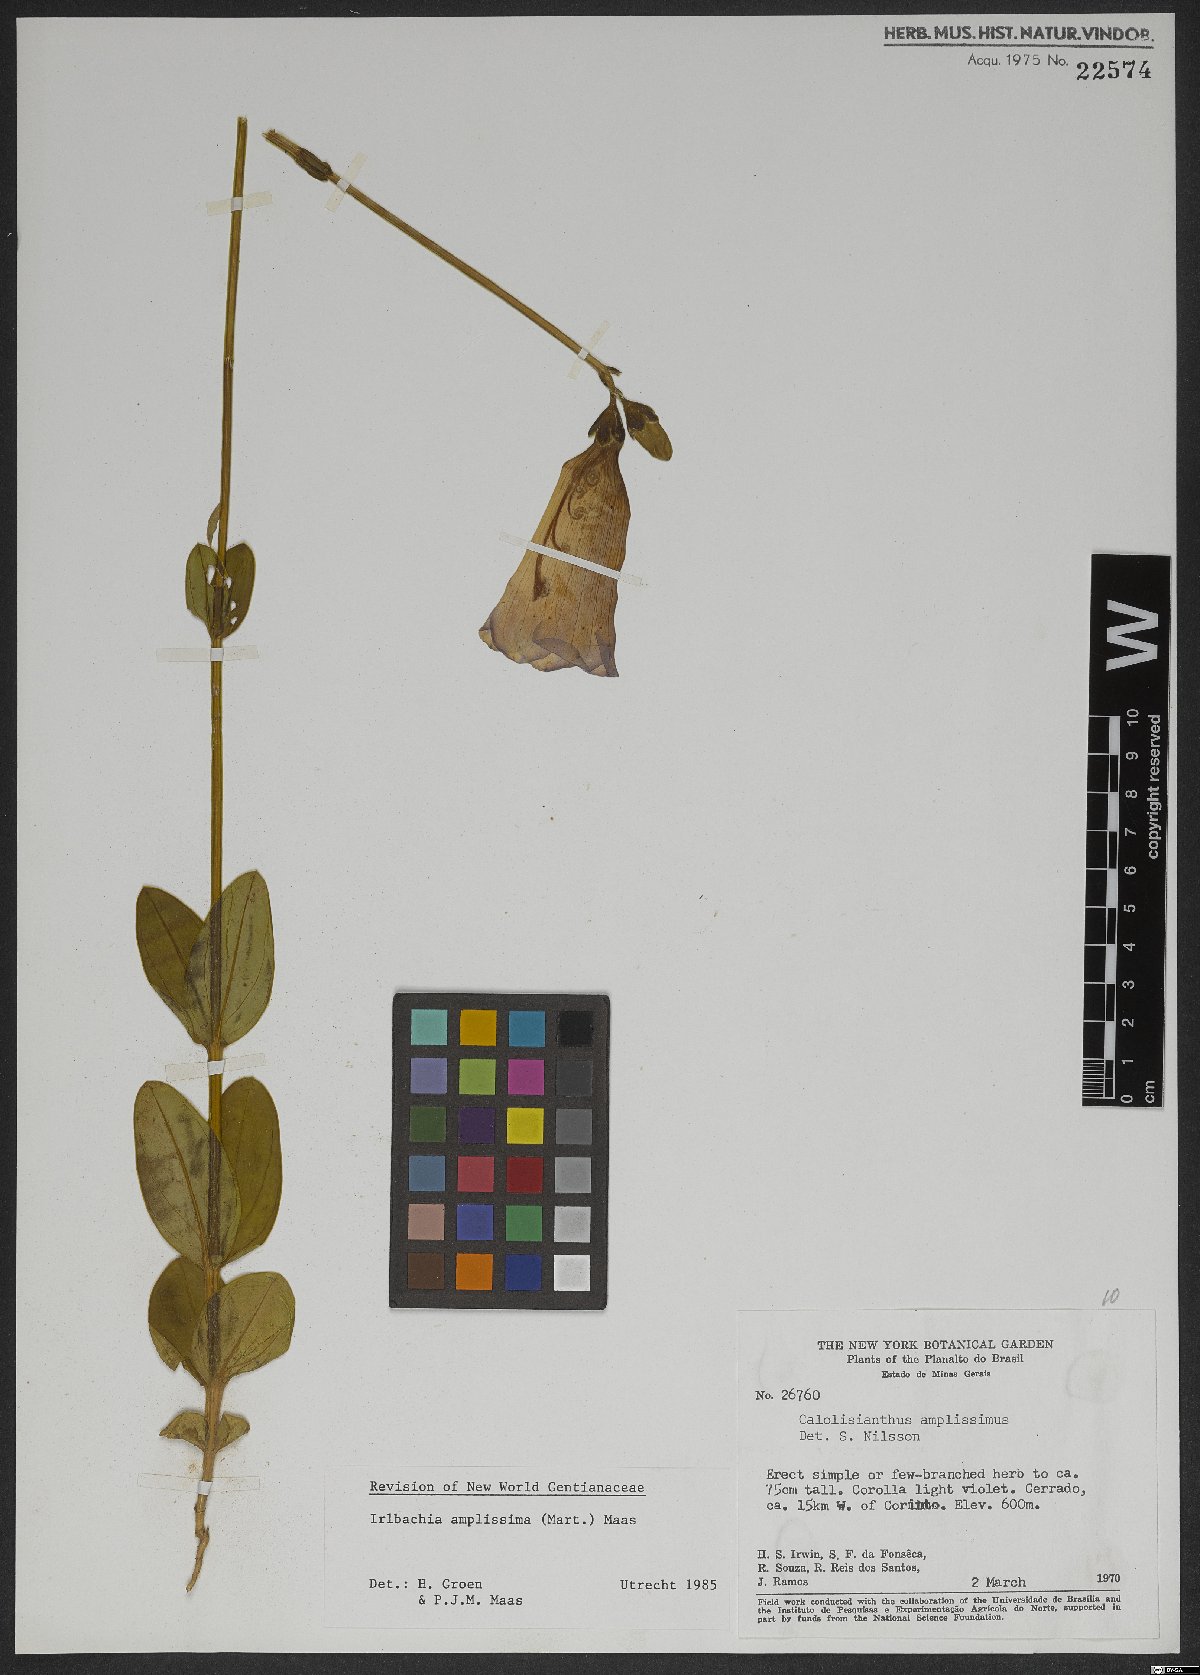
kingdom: Plantae
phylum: Tracheophyta
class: Magnoliopsida
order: Gentianales
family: Gentianaceae
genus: Calolisianthus
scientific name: Calolisianthus amplissimus
